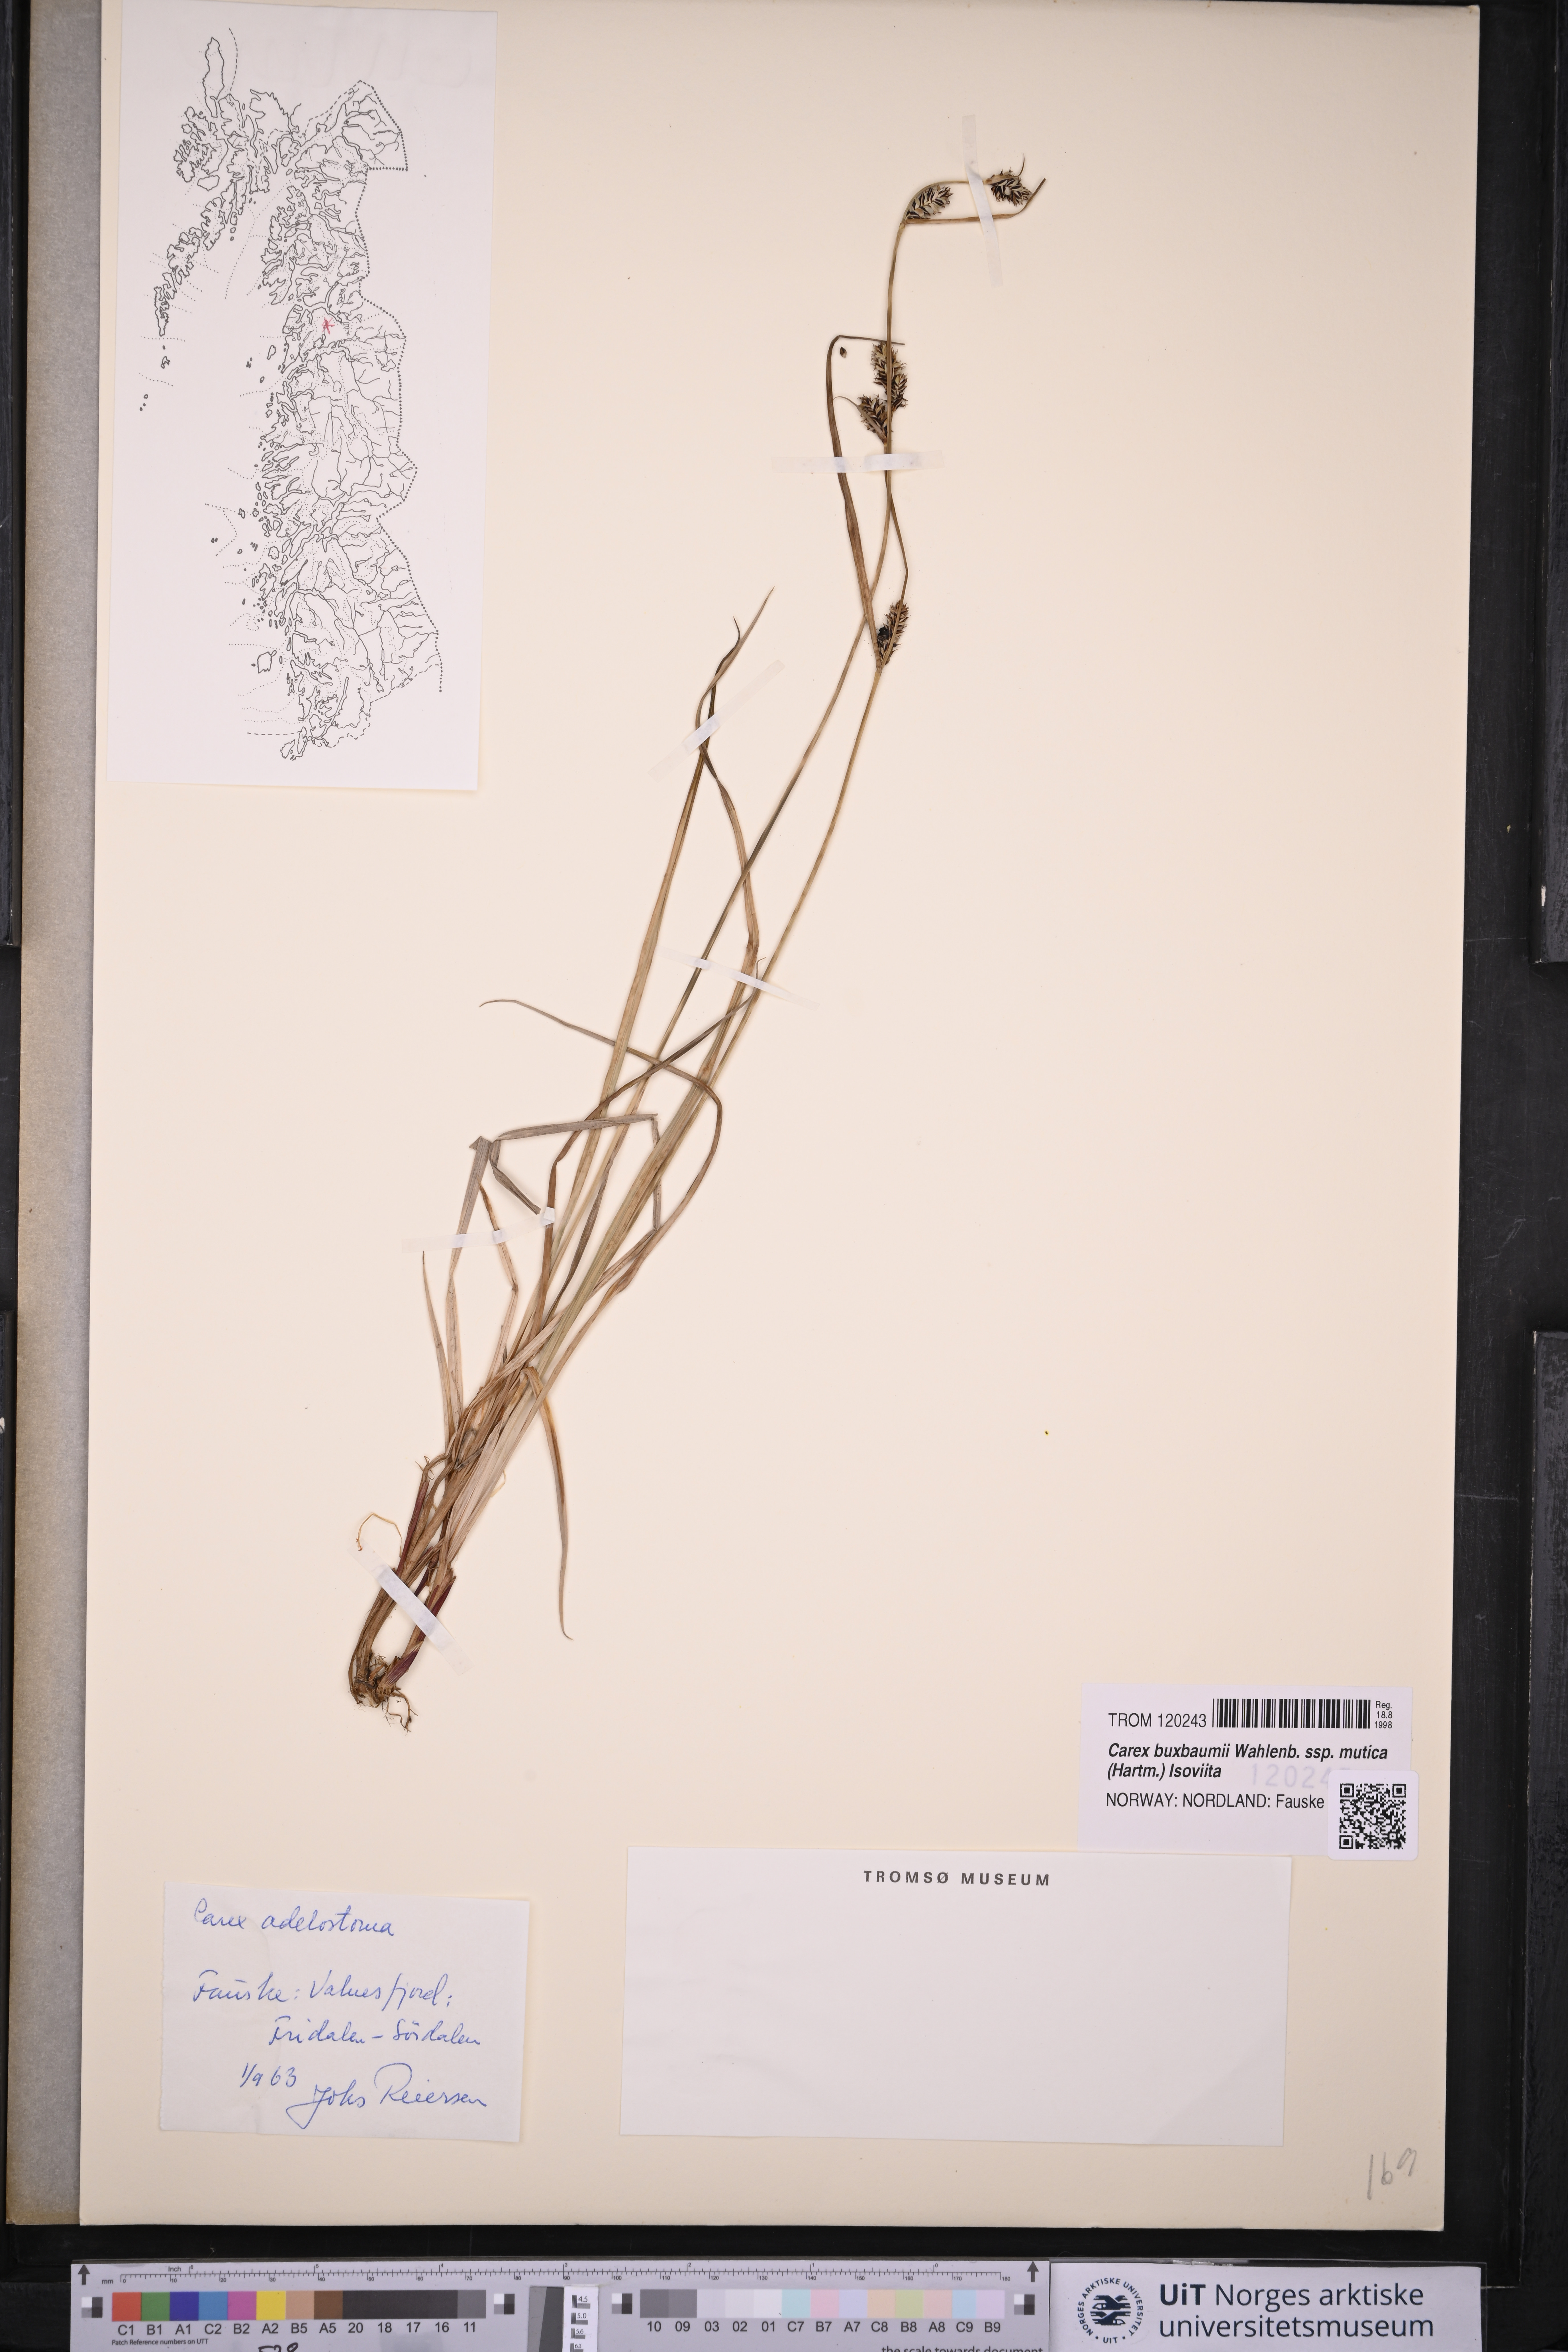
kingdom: Plantae
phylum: Tracheophyta
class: Liliopsida
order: Poales
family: Cyperaceae
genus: Carex
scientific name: Carex adelostoma
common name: Circumpolar sedge
